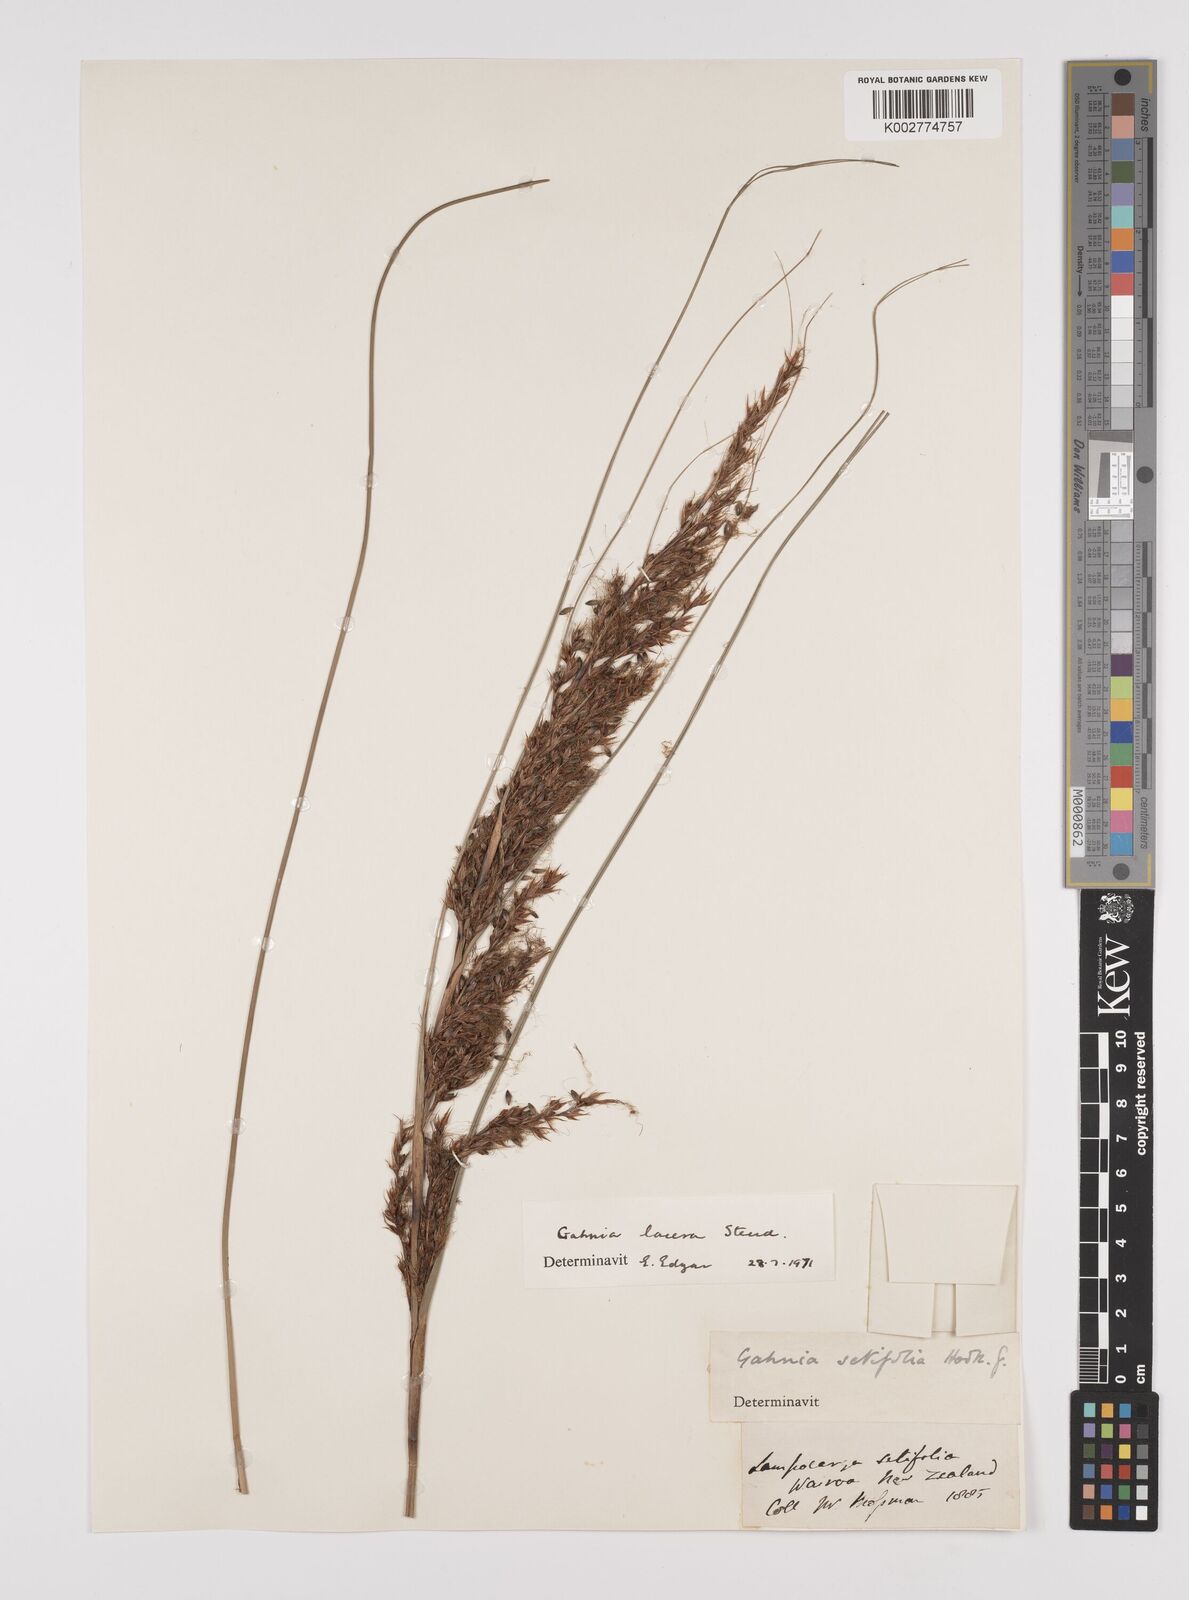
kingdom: Plantae
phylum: Tracheophyta
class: Liliopsida
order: Poales
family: Cyperaceae
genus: Gahnia
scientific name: Gahnia lacera
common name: Sawsedge
